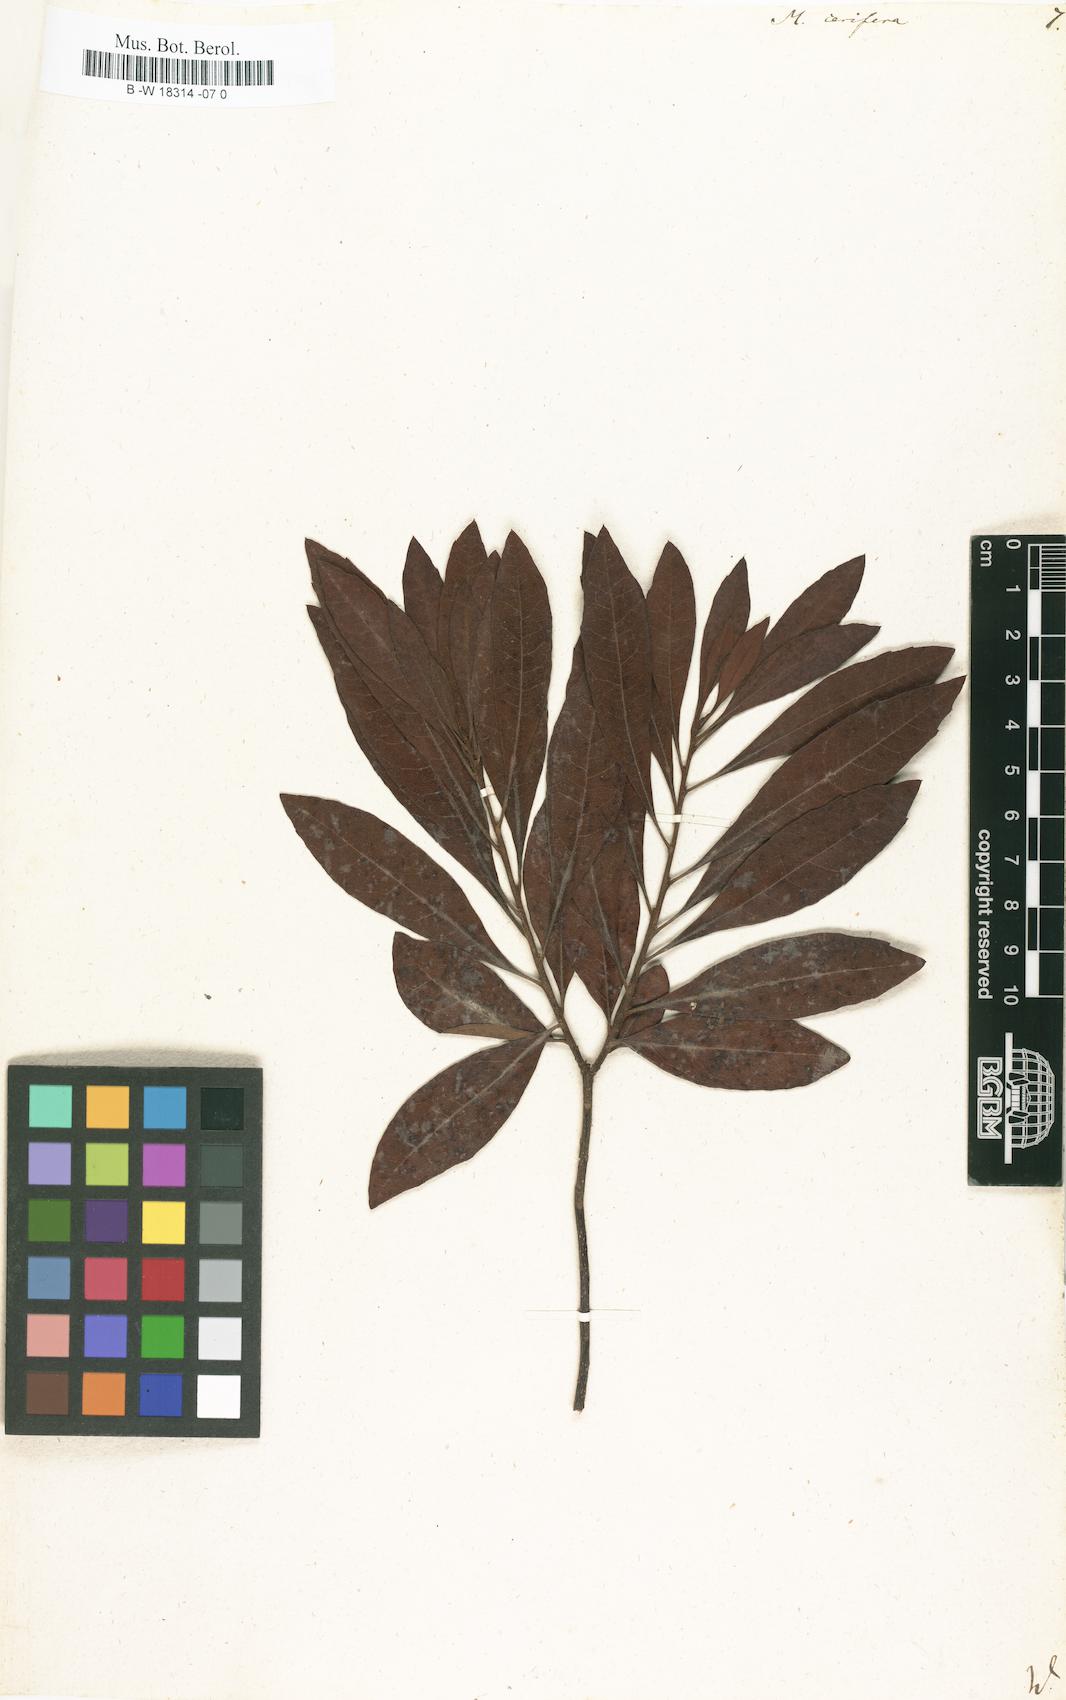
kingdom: Plantae
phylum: Tracheophyta
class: Magnoliopsida
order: Fagales
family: Myricaceae
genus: Morella
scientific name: Morella cerifera
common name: Wax myrtle
